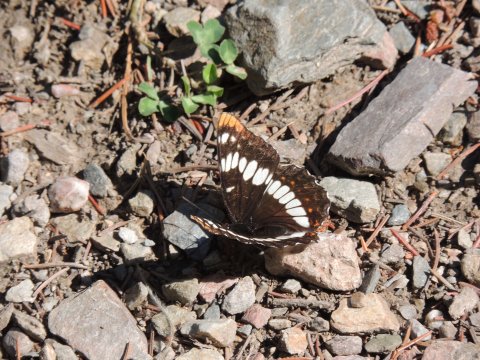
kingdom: Animalia
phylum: Arthropoda
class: Insecta
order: Lepidoptera
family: Nymphalidae
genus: Limenitis
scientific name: Limenitis lorquini
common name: Lorquin's Admiral
